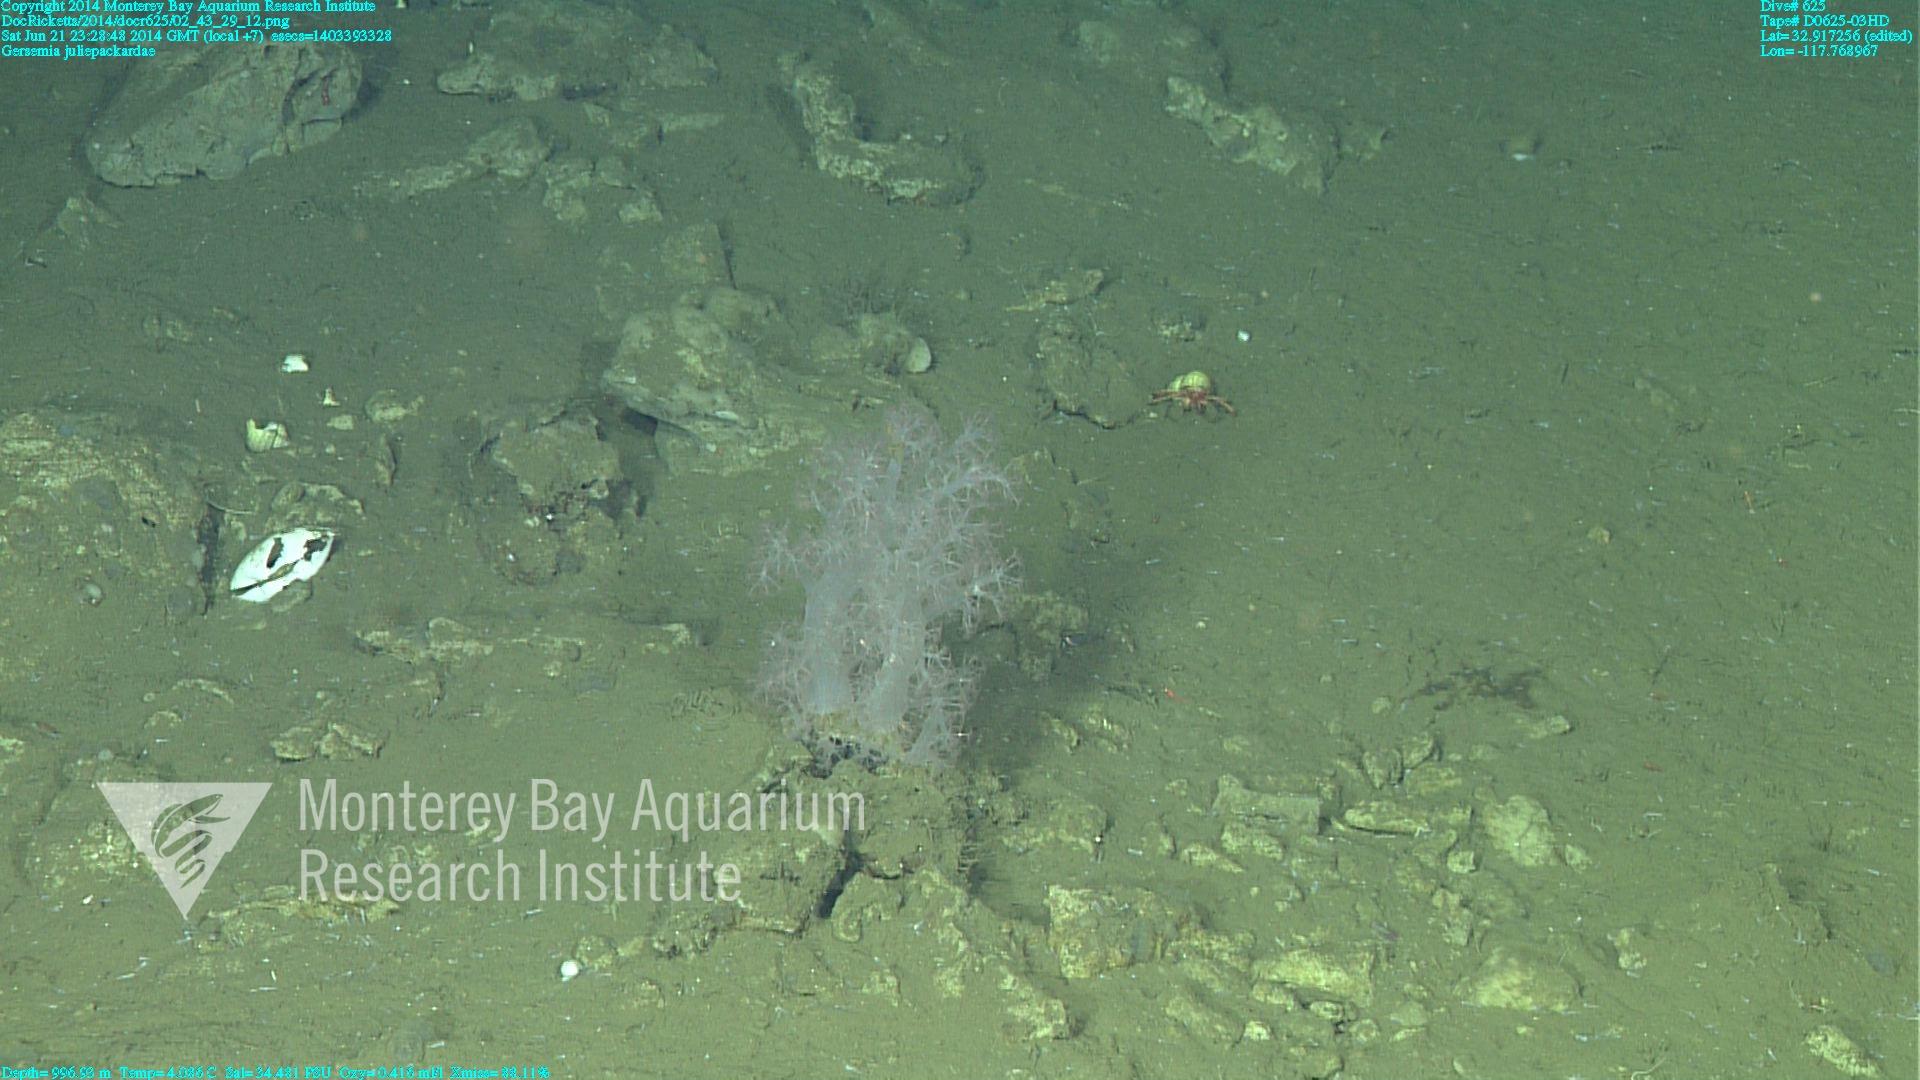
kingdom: Animalia
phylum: Cnidaria
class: Anthozoa
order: Malacalcyonacea
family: Alcyoniidae
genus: Gersemia
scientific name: Gersemia juliepackardae
